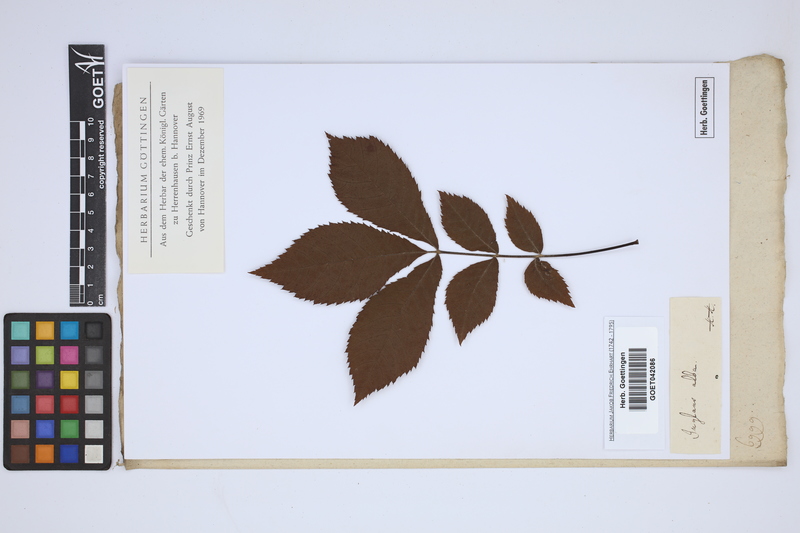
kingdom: Plantae
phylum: Tracheophyta
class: Magnoliopsida
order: Fagales
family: Juglandaceae
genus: Carya
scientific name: Carya alba
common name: Mockernut hickory
